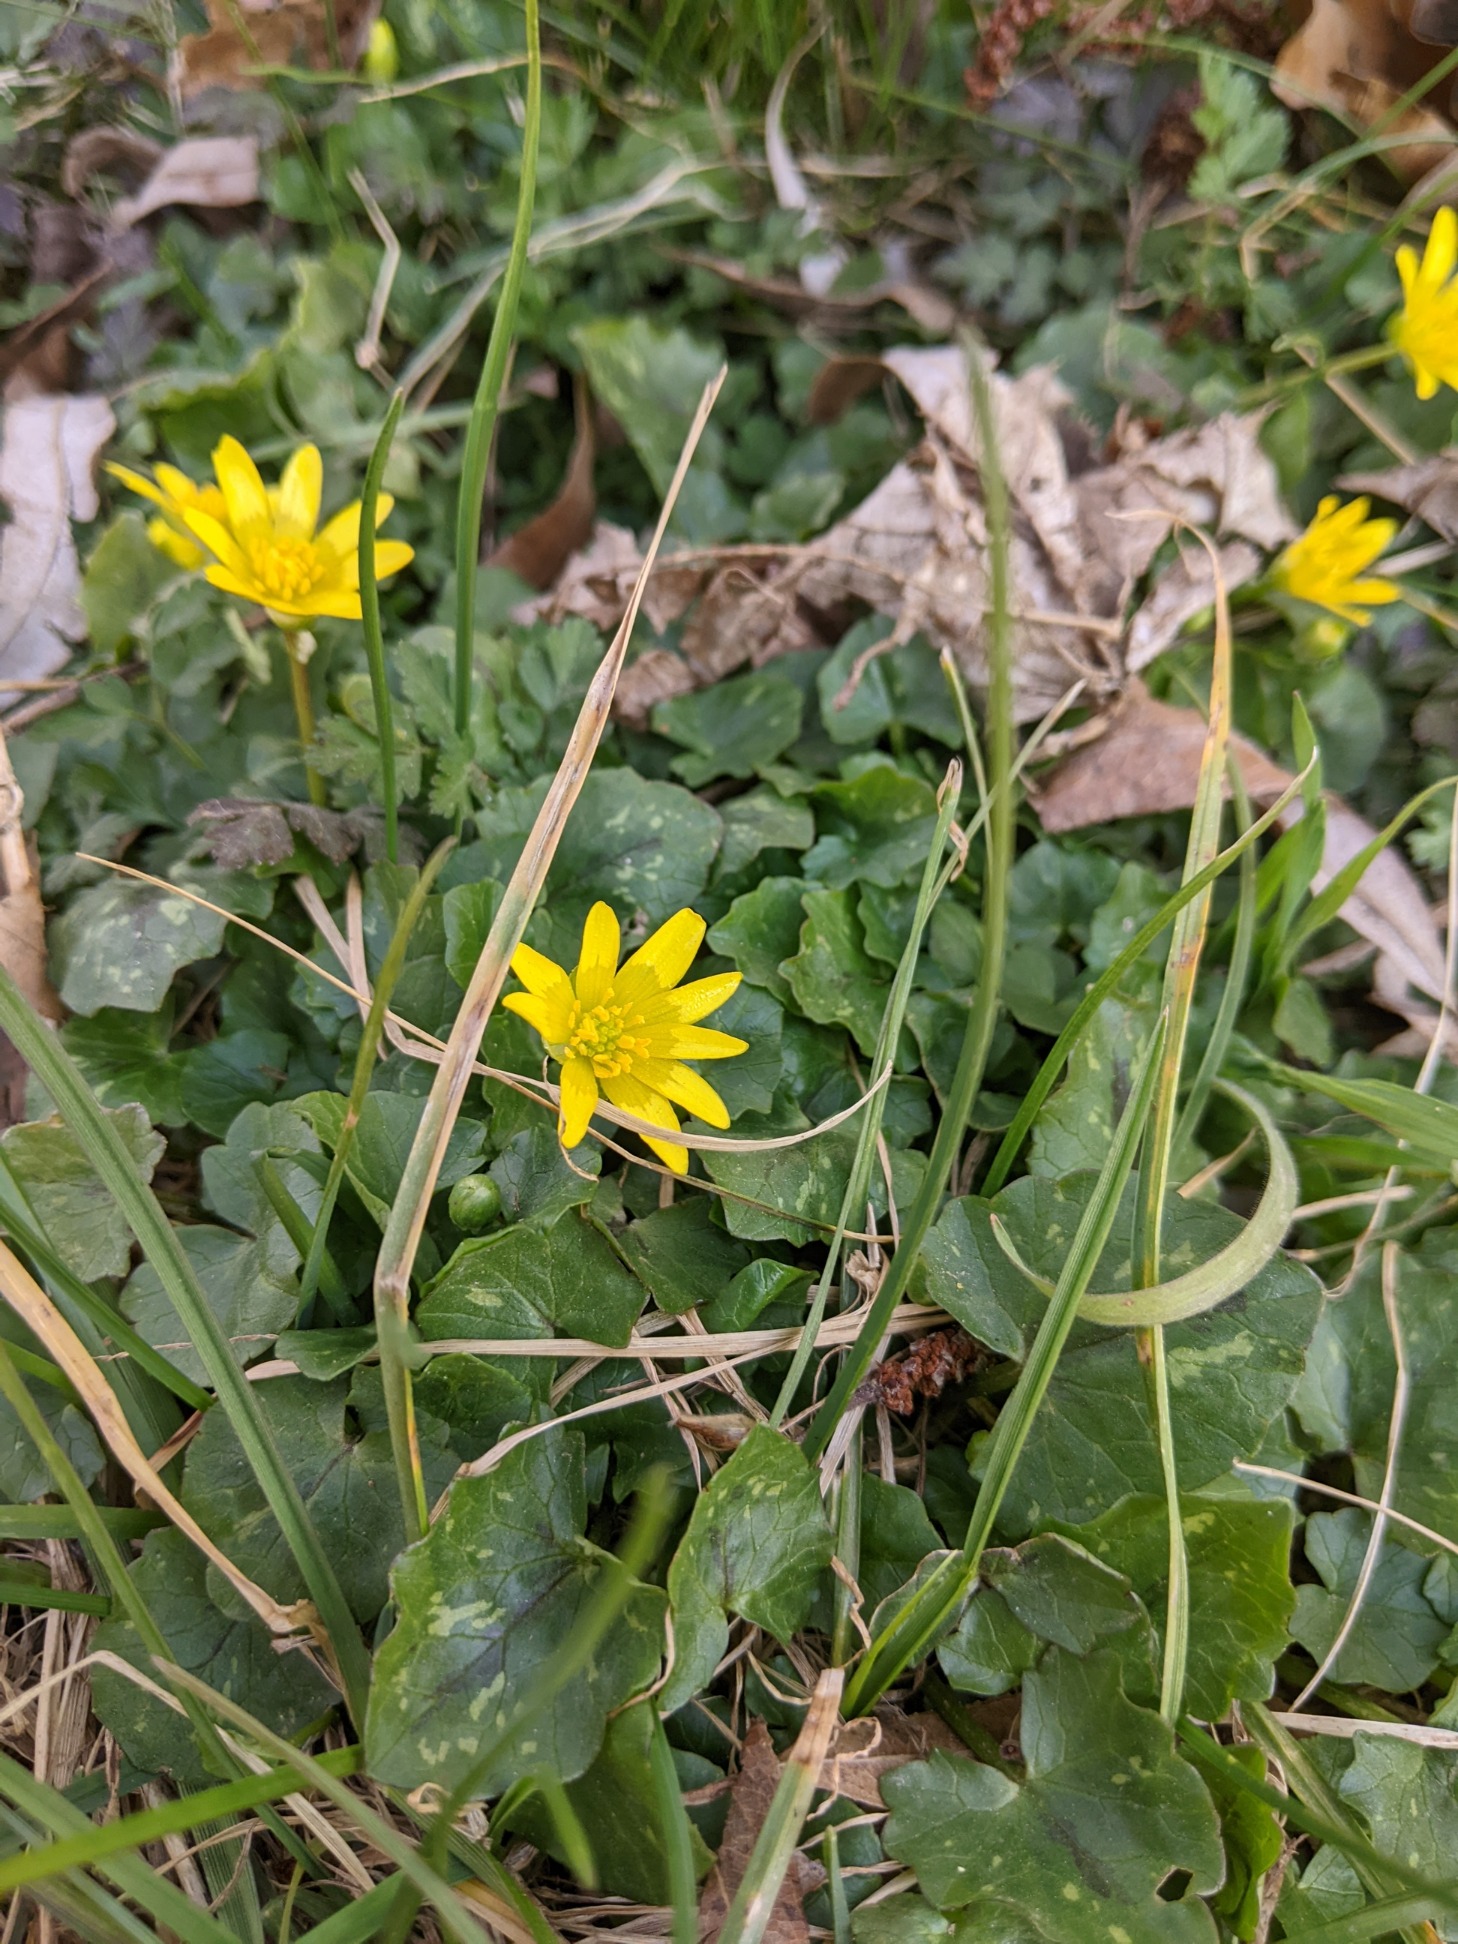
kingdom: Plantae
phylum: Tracheophyta
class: Magnoliopsida
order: Ranunculales
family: Ranunculaceae
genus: Ficaria
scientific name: Ficaria verna
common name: Vorterod
